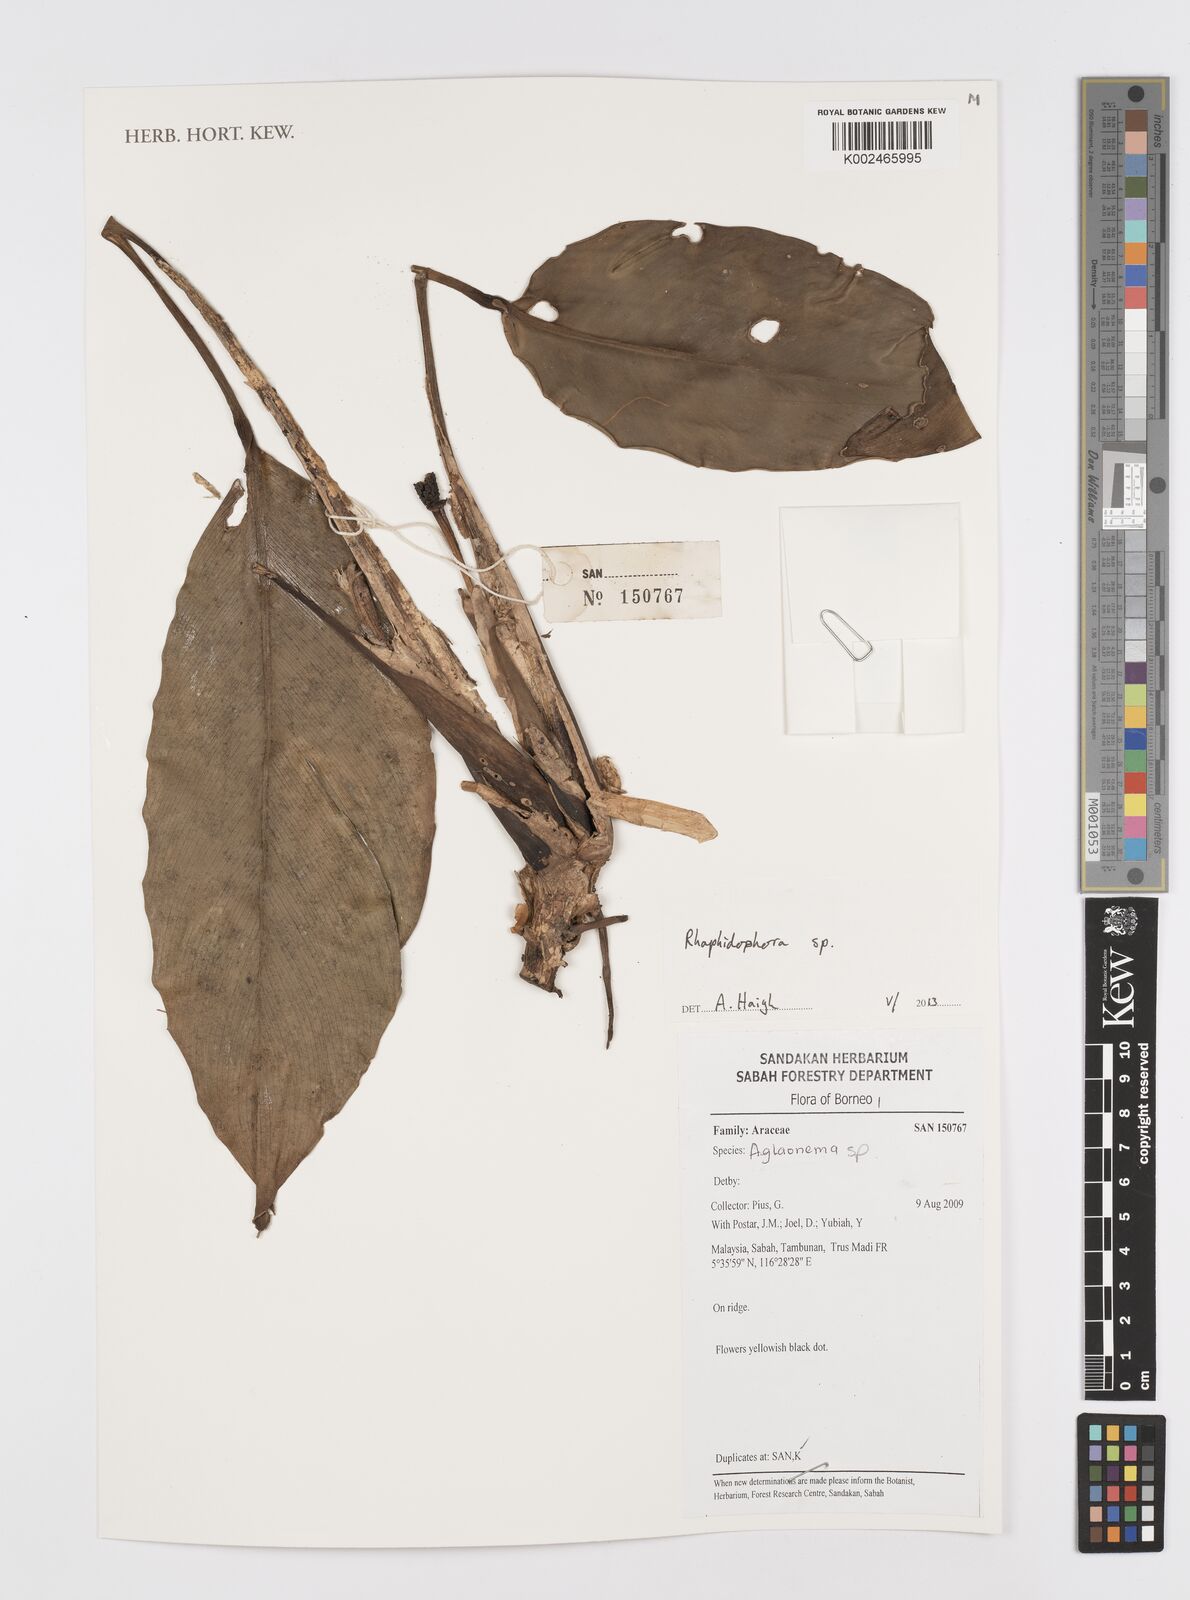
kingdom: Plantae
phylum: Tracheophyta
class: Liliopsida
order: Alismatales
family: Araceae
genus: Rhaphidophora
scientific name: Rhaphidophora
